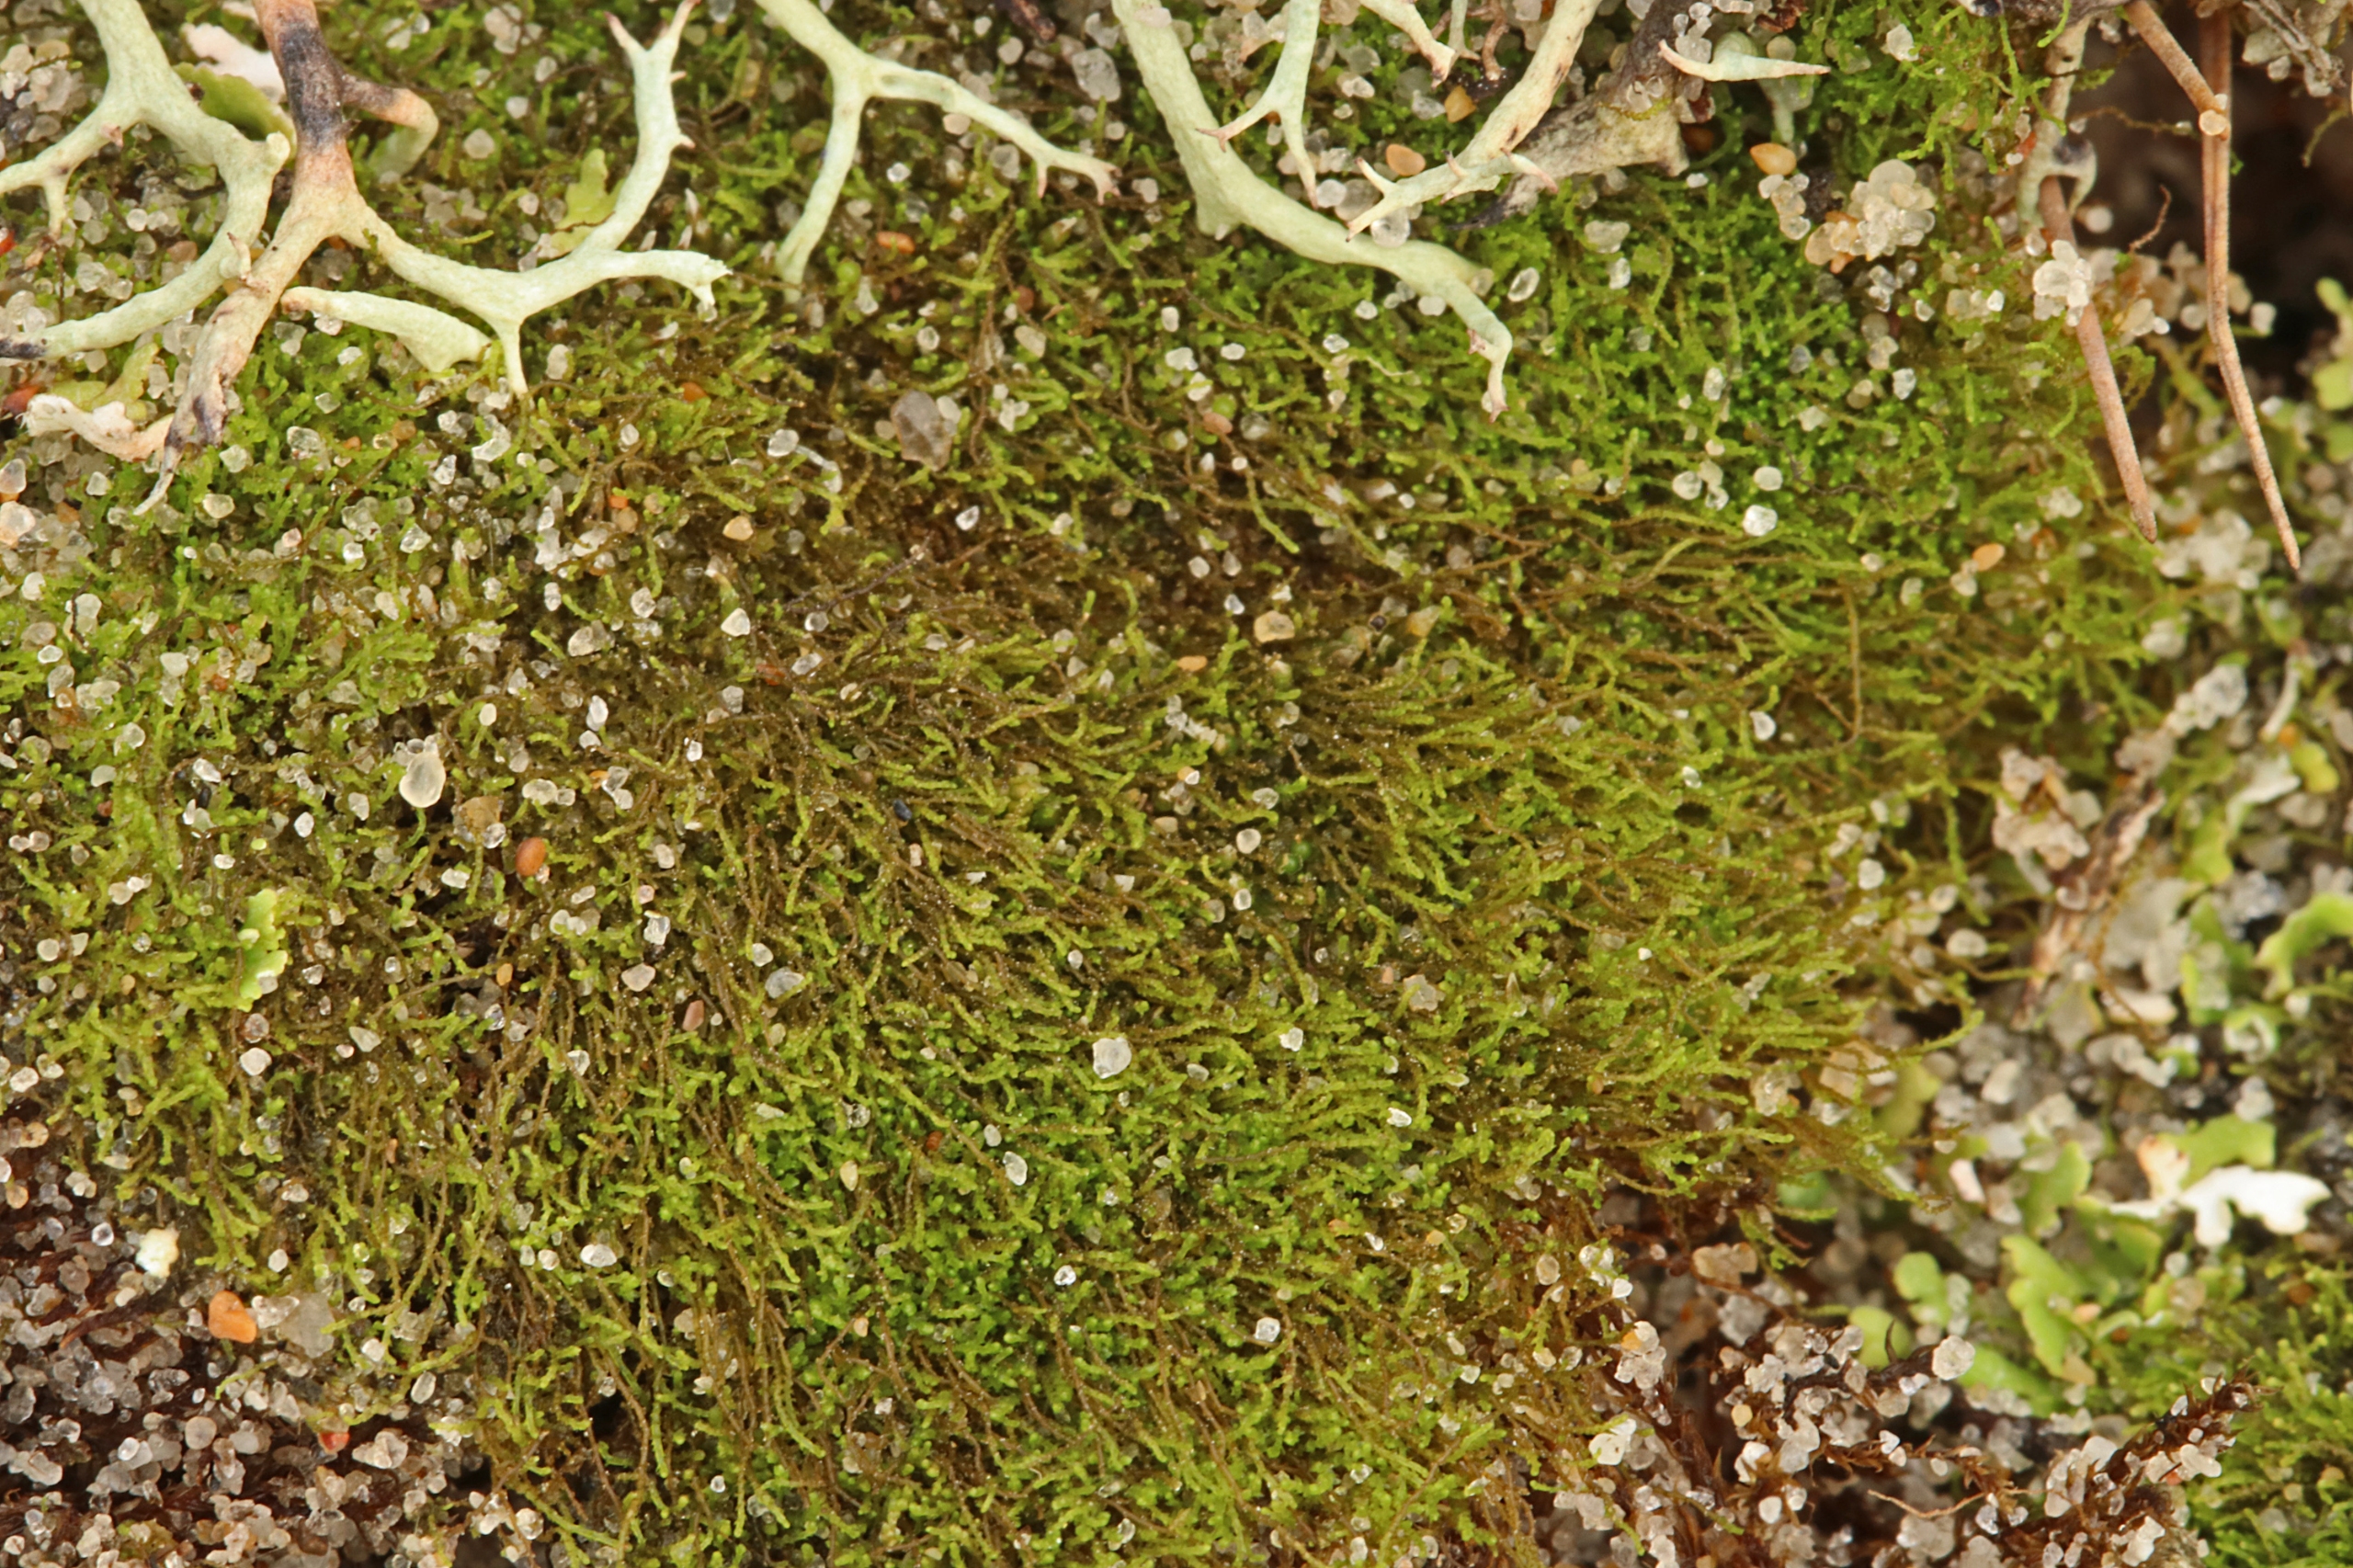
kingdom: Plantae
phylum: Marchantiophyta
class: Jungermanniopsida
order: Jungermanniales
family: Cephaloziellaceae
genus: Cephaloziella
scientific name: Cephaloziella divaricata
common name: Mørk dværgtråd (varietet)
